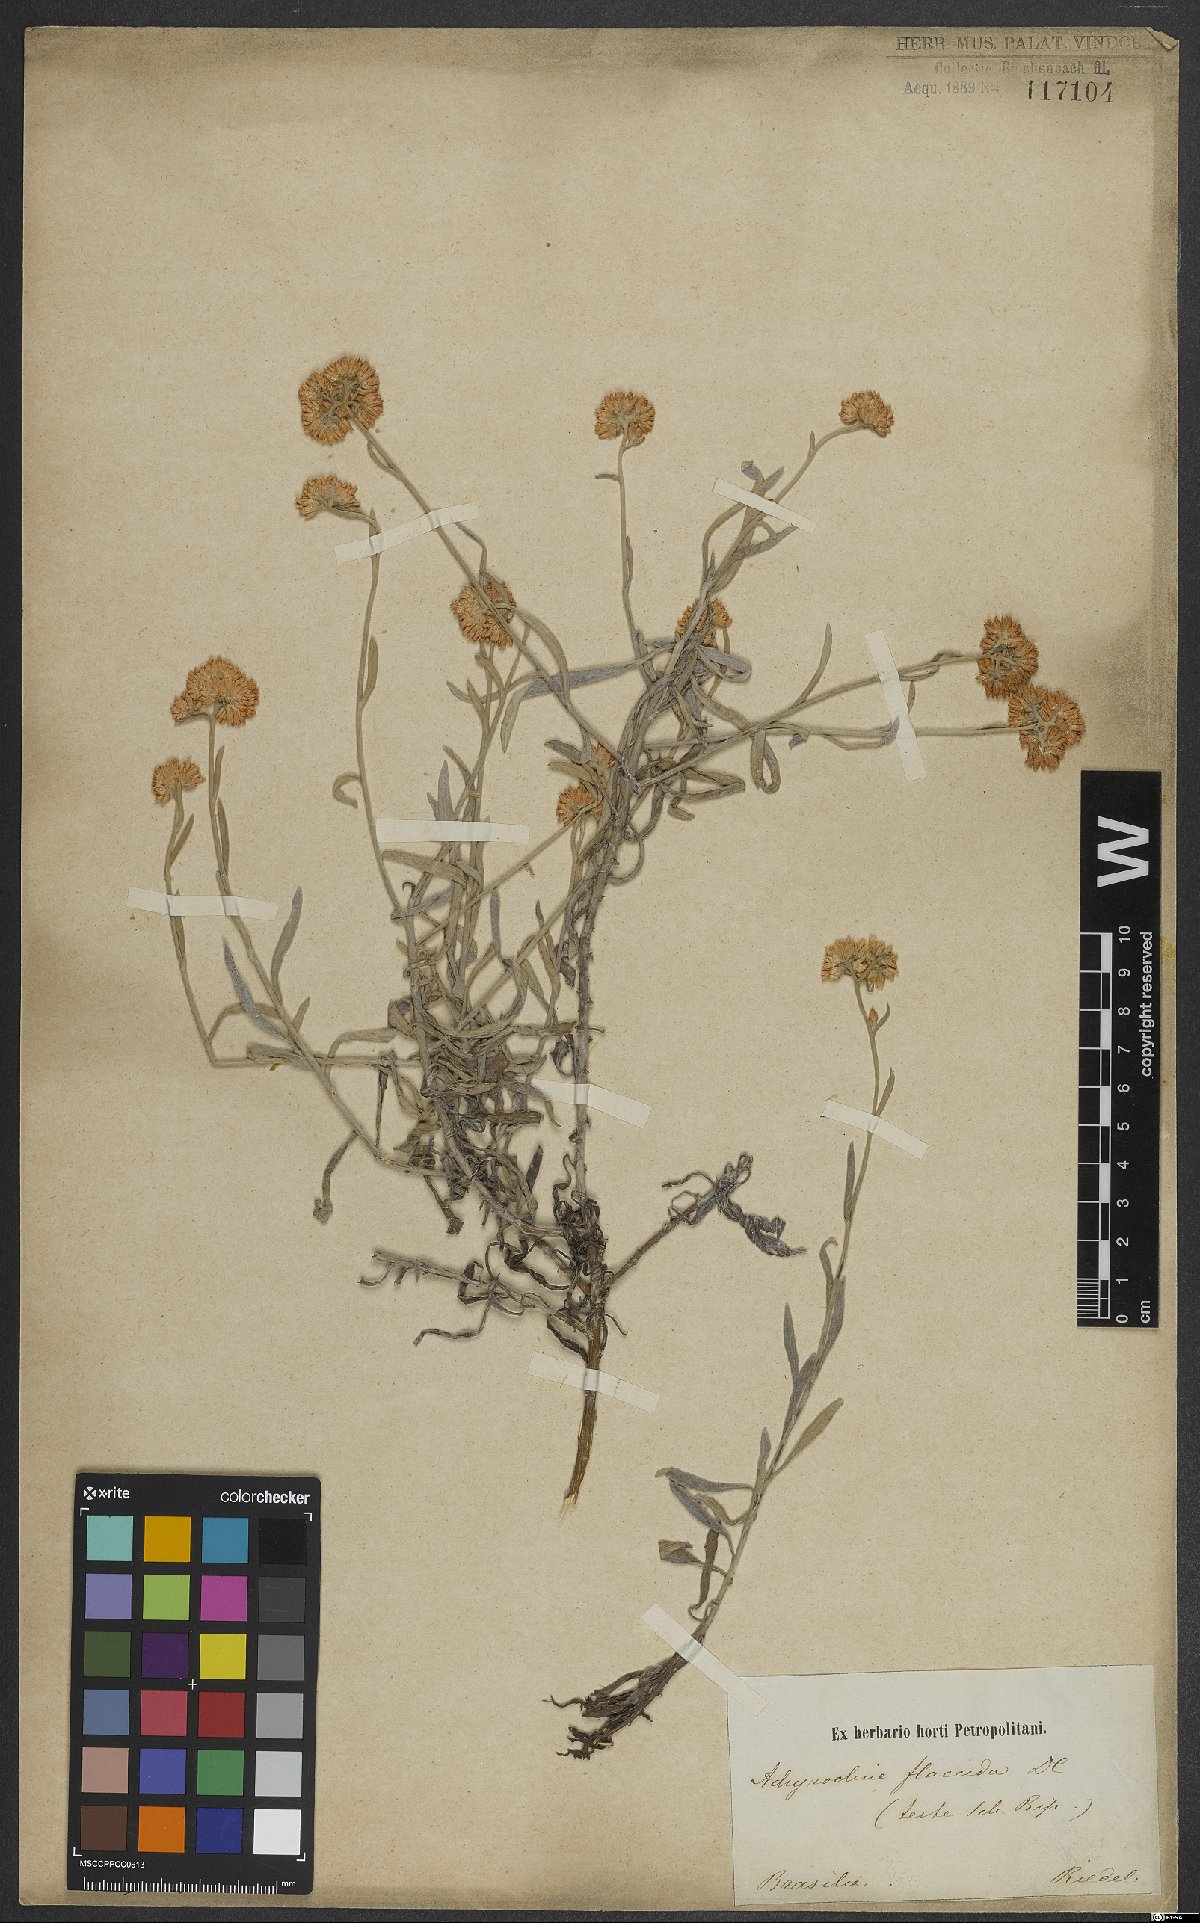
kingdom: Plantae
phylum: Tracheophyta
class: Magnoliopsida
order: Asterales
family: Asteraceae
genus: Achyrocline
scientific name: Achyrocline flaccida
